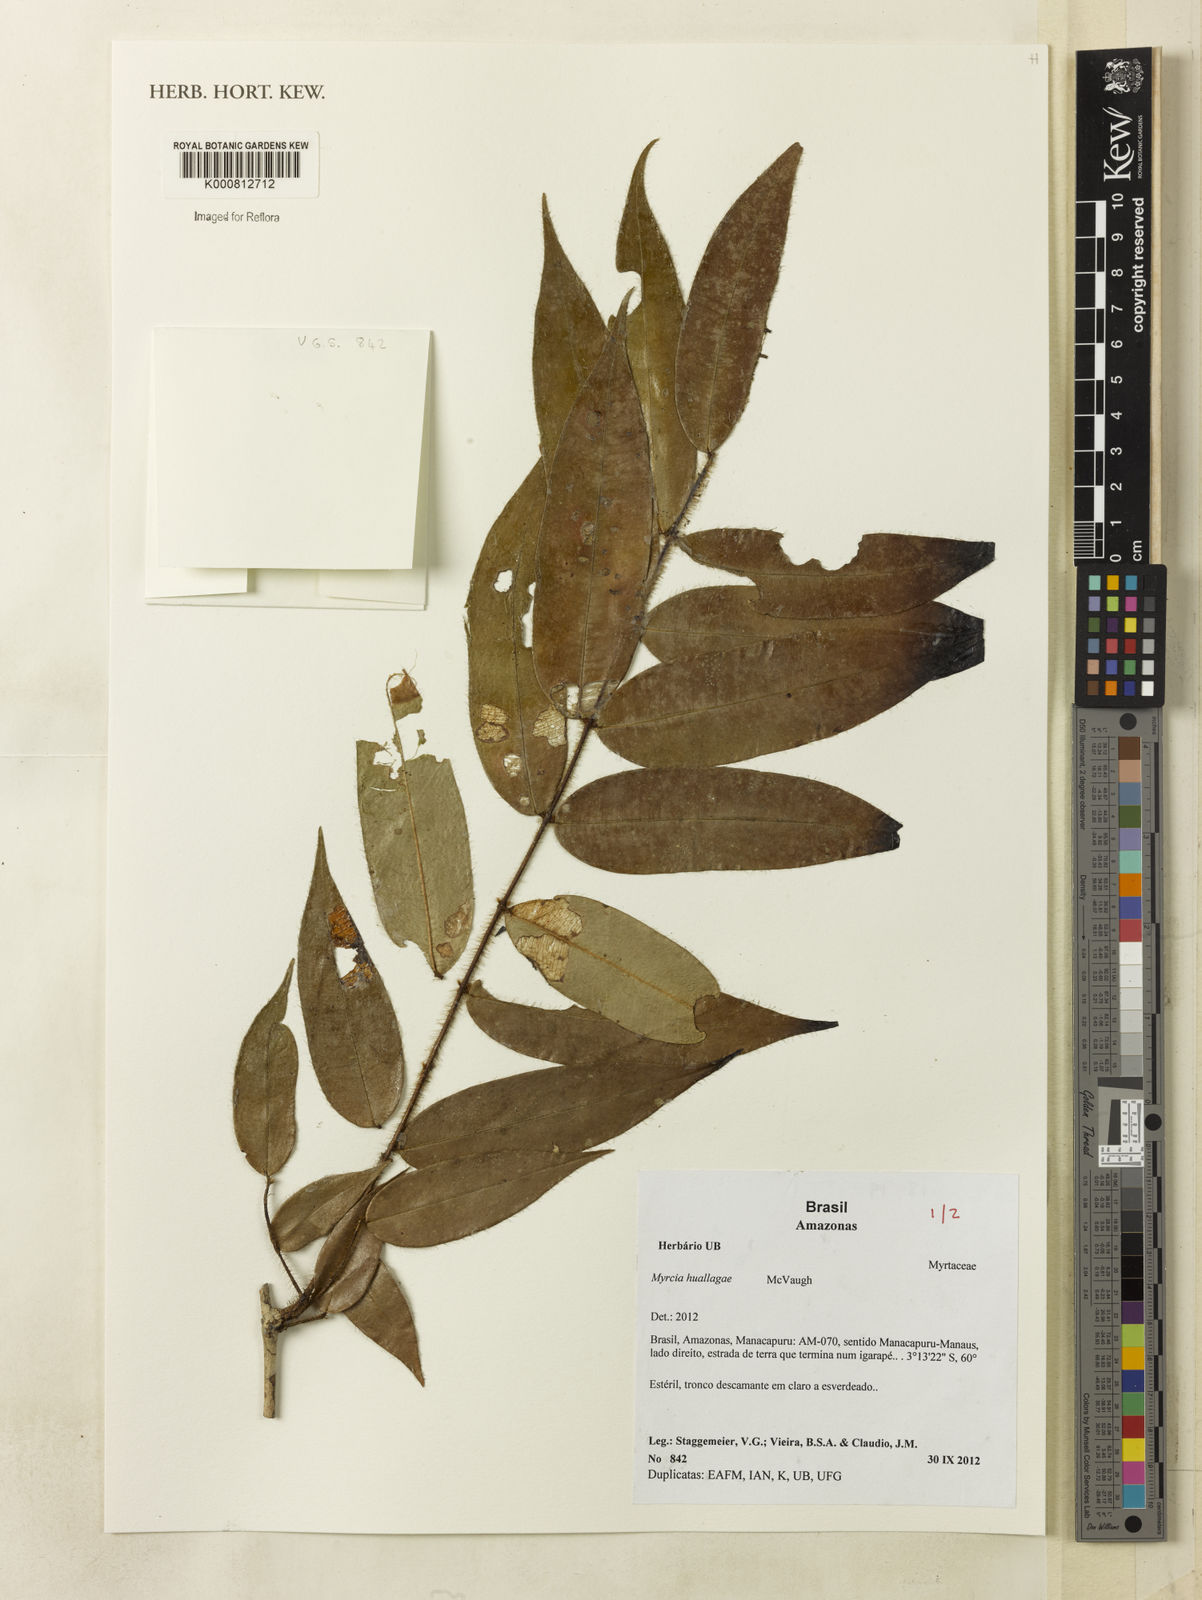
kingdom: Plantae
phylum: Tracheophyta
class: Magnoliopsida
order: Myrtales
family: Myrtaceae
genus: Myrcia
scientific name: Myrcia huallagae
